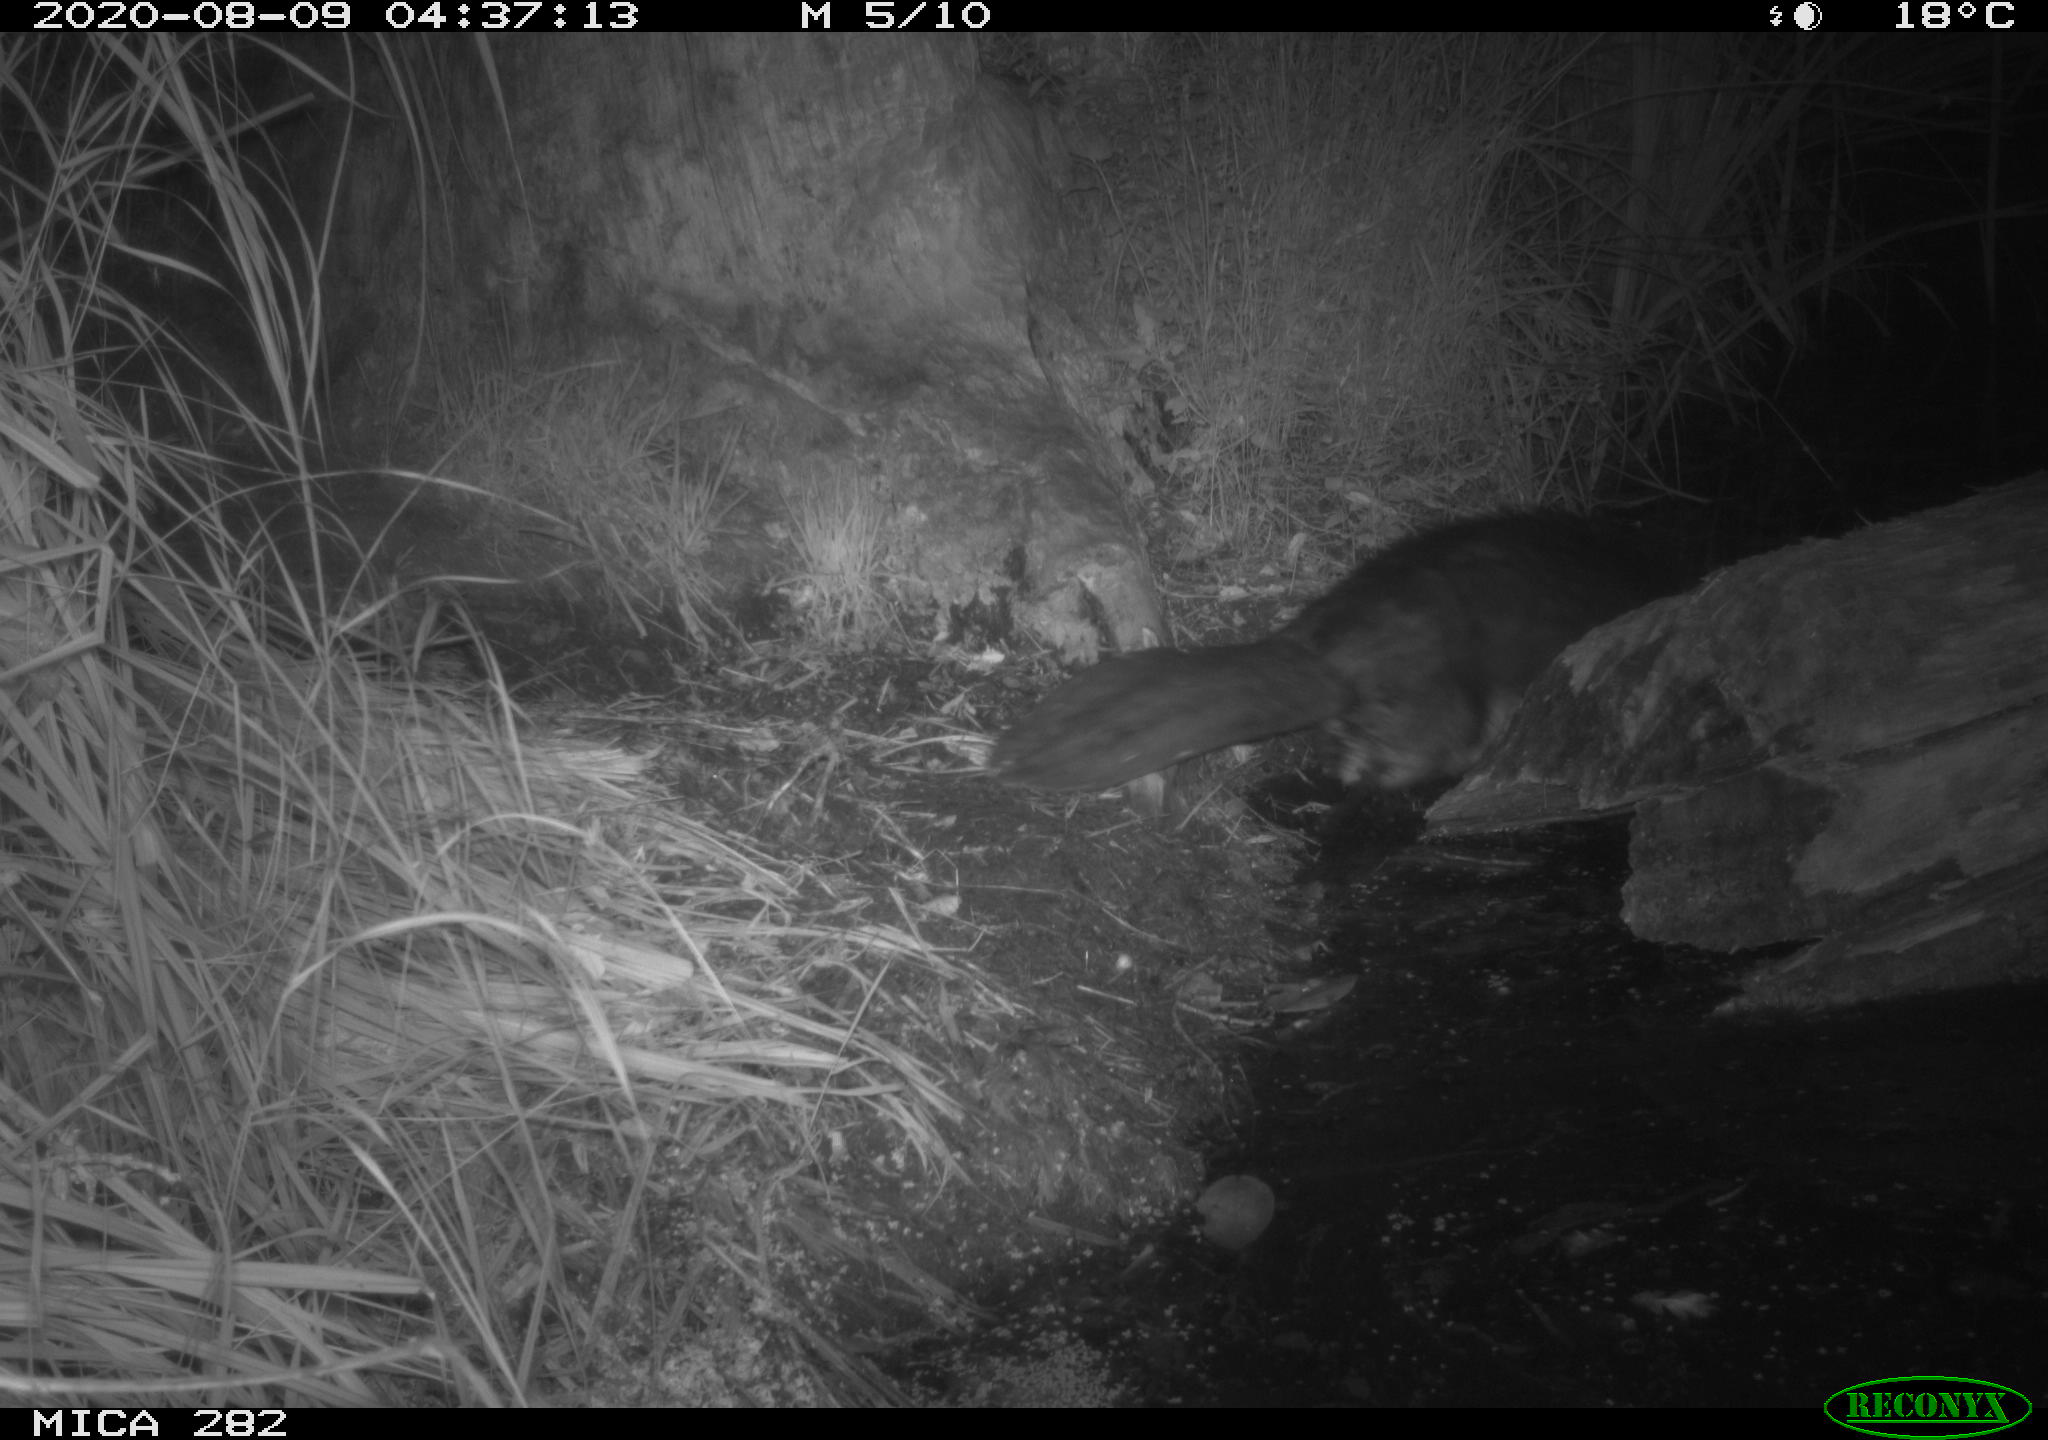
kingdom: Animalia
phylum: Chordata
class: Mammalia
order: Rodentia
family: Castoridae
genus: Castor
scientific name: Castor fiber
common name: Eurasian beaver
